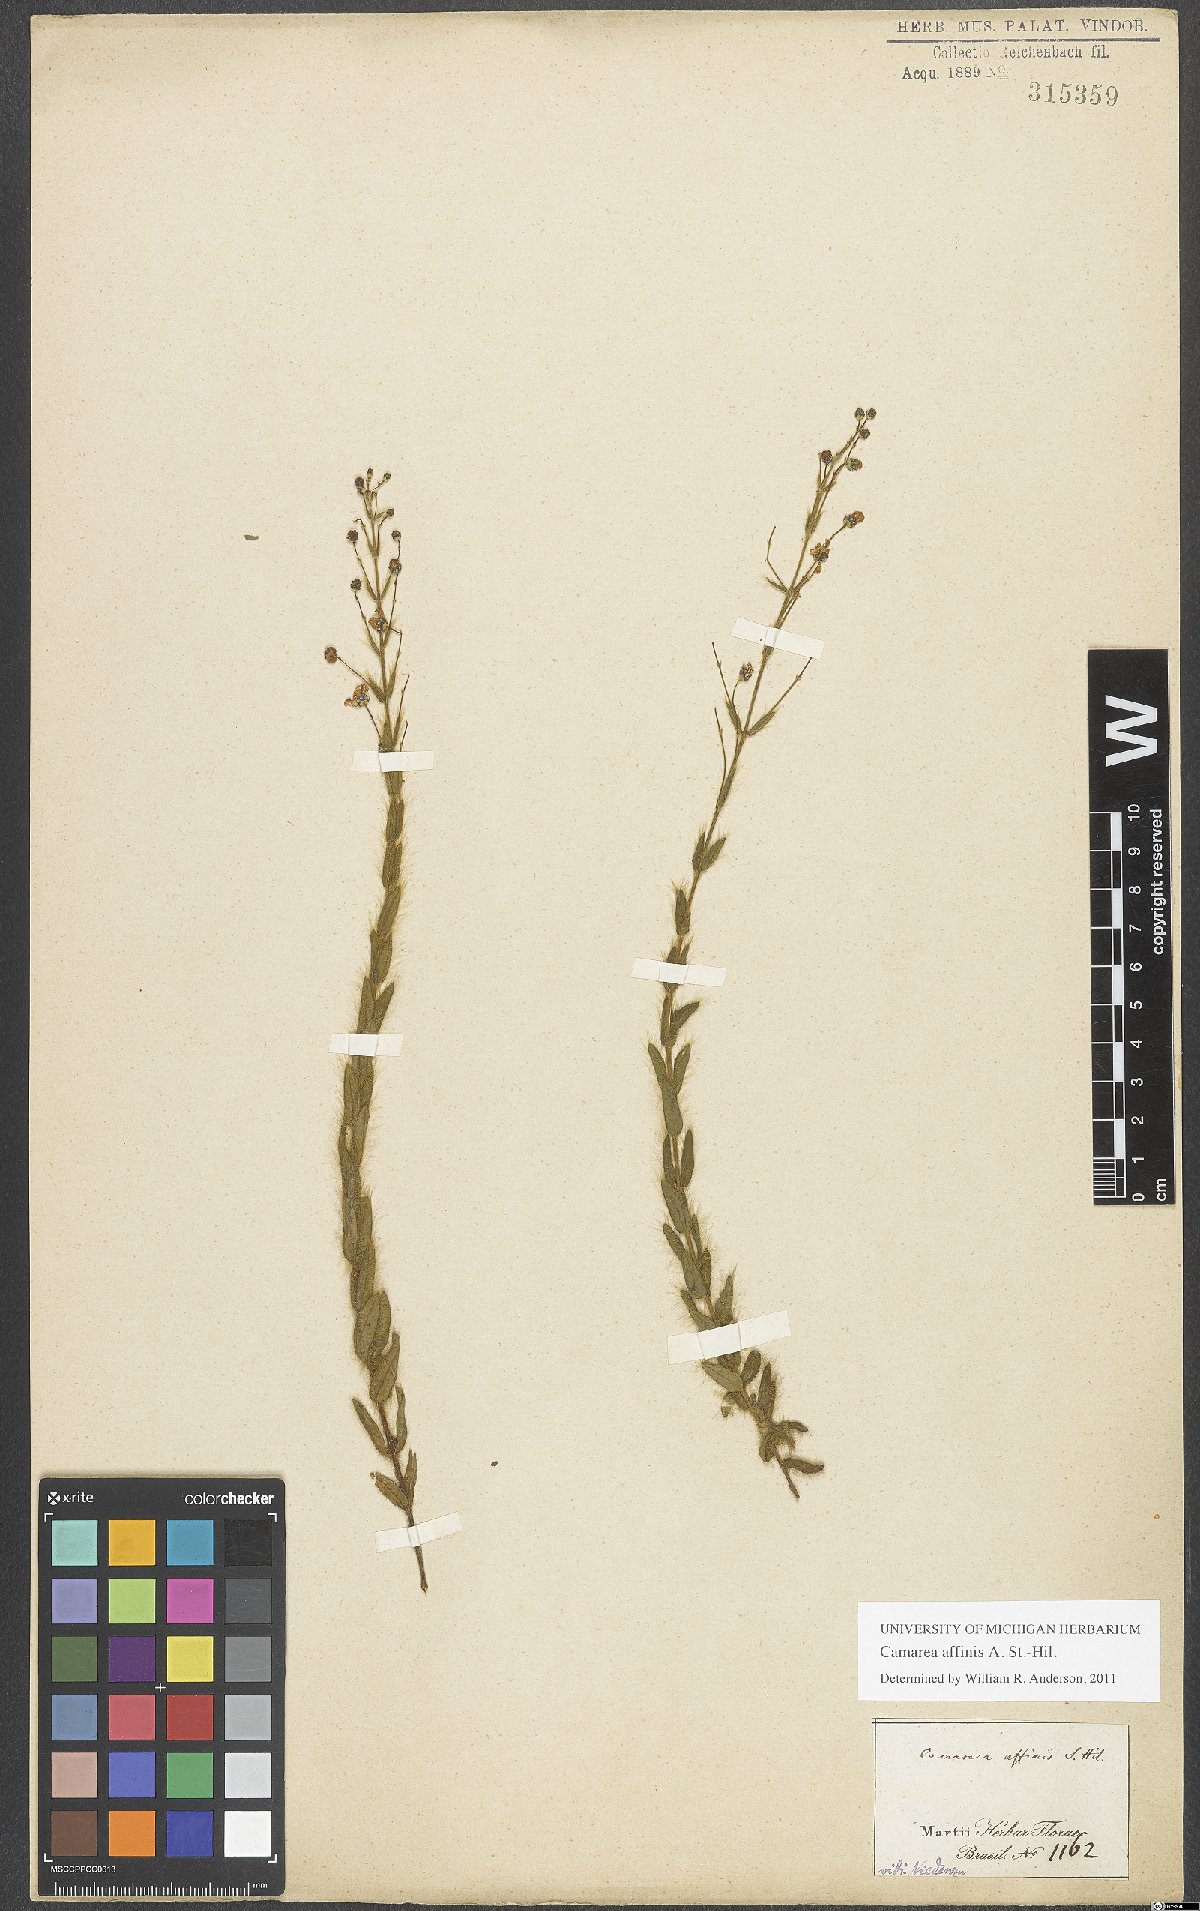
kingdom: Plantae
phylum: Tracheophyta
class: Magnoliopsida
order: Malpighiales
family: Malpighiaceae
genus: Camarea
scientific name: Camarea affinis
